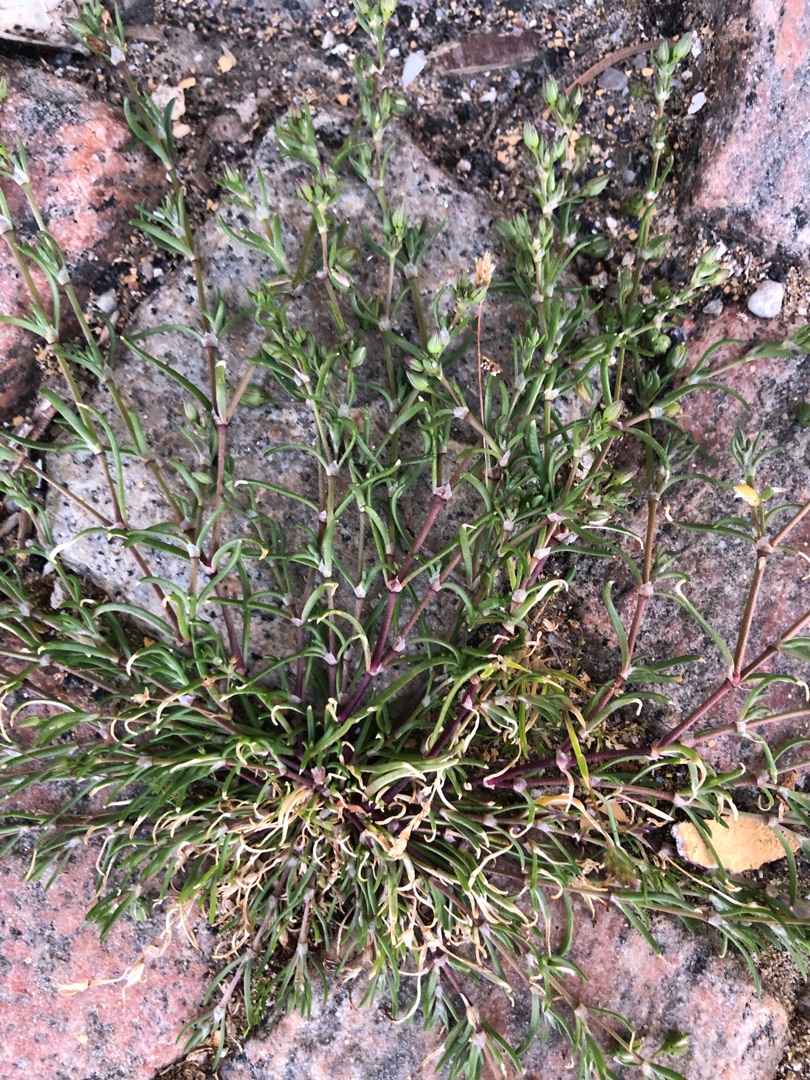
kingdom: Plantae
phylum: Tracheophyta
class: Magnoliopsida
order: Caryophyllales
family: Caryophyllaceae
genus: Spergularia
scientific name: Spergularia marina
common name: Kødet hindeknæ
